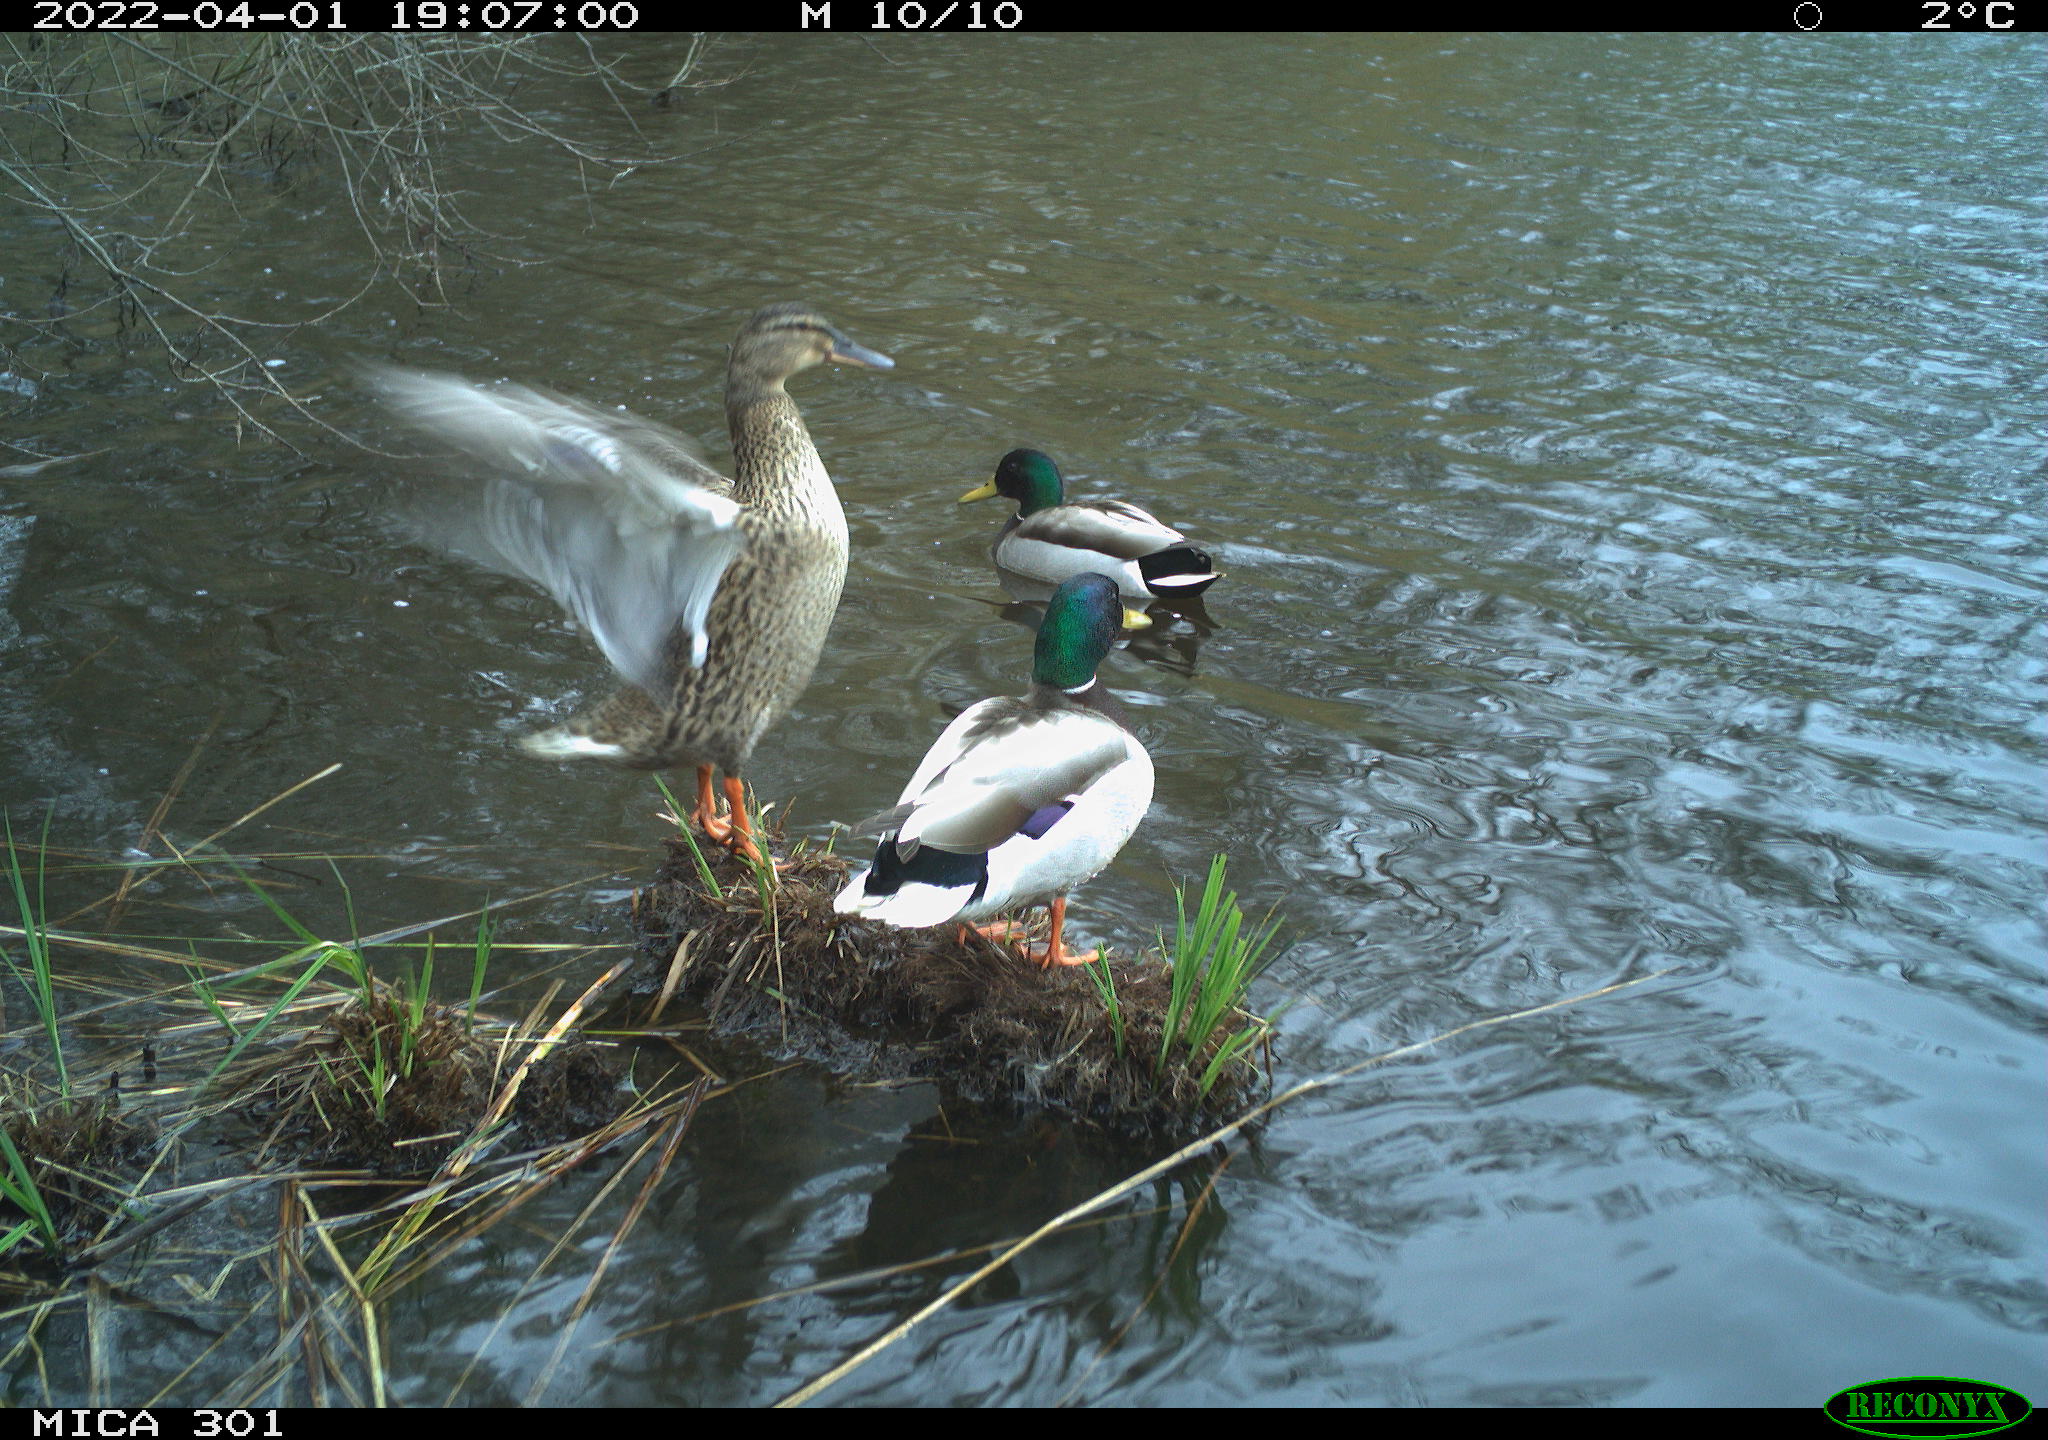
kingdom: Animalia
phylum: Chordata
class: Aves
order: Anseriformes
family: Anatidae
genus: Anas
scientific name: Anas platyrhynchos
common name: Mallard
